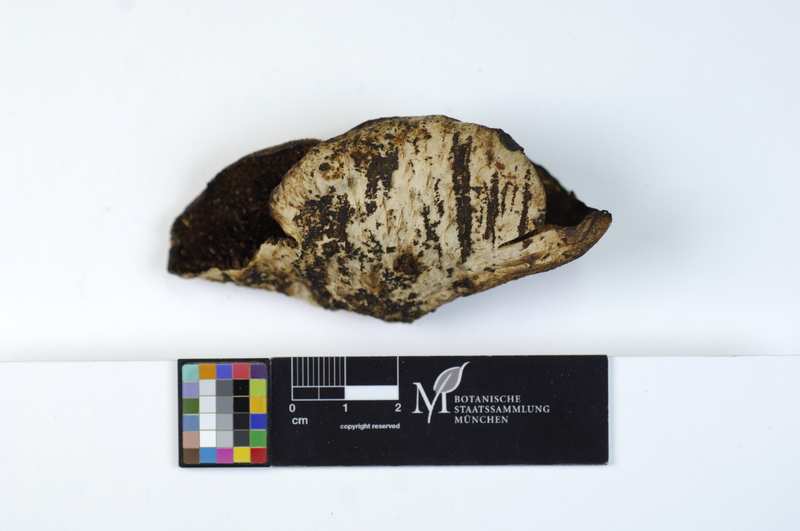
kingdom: Plantae
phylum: Tracheophyta
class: Pinopsida
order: Pinales
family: Pinaceae
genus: Picea
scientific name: Picea
